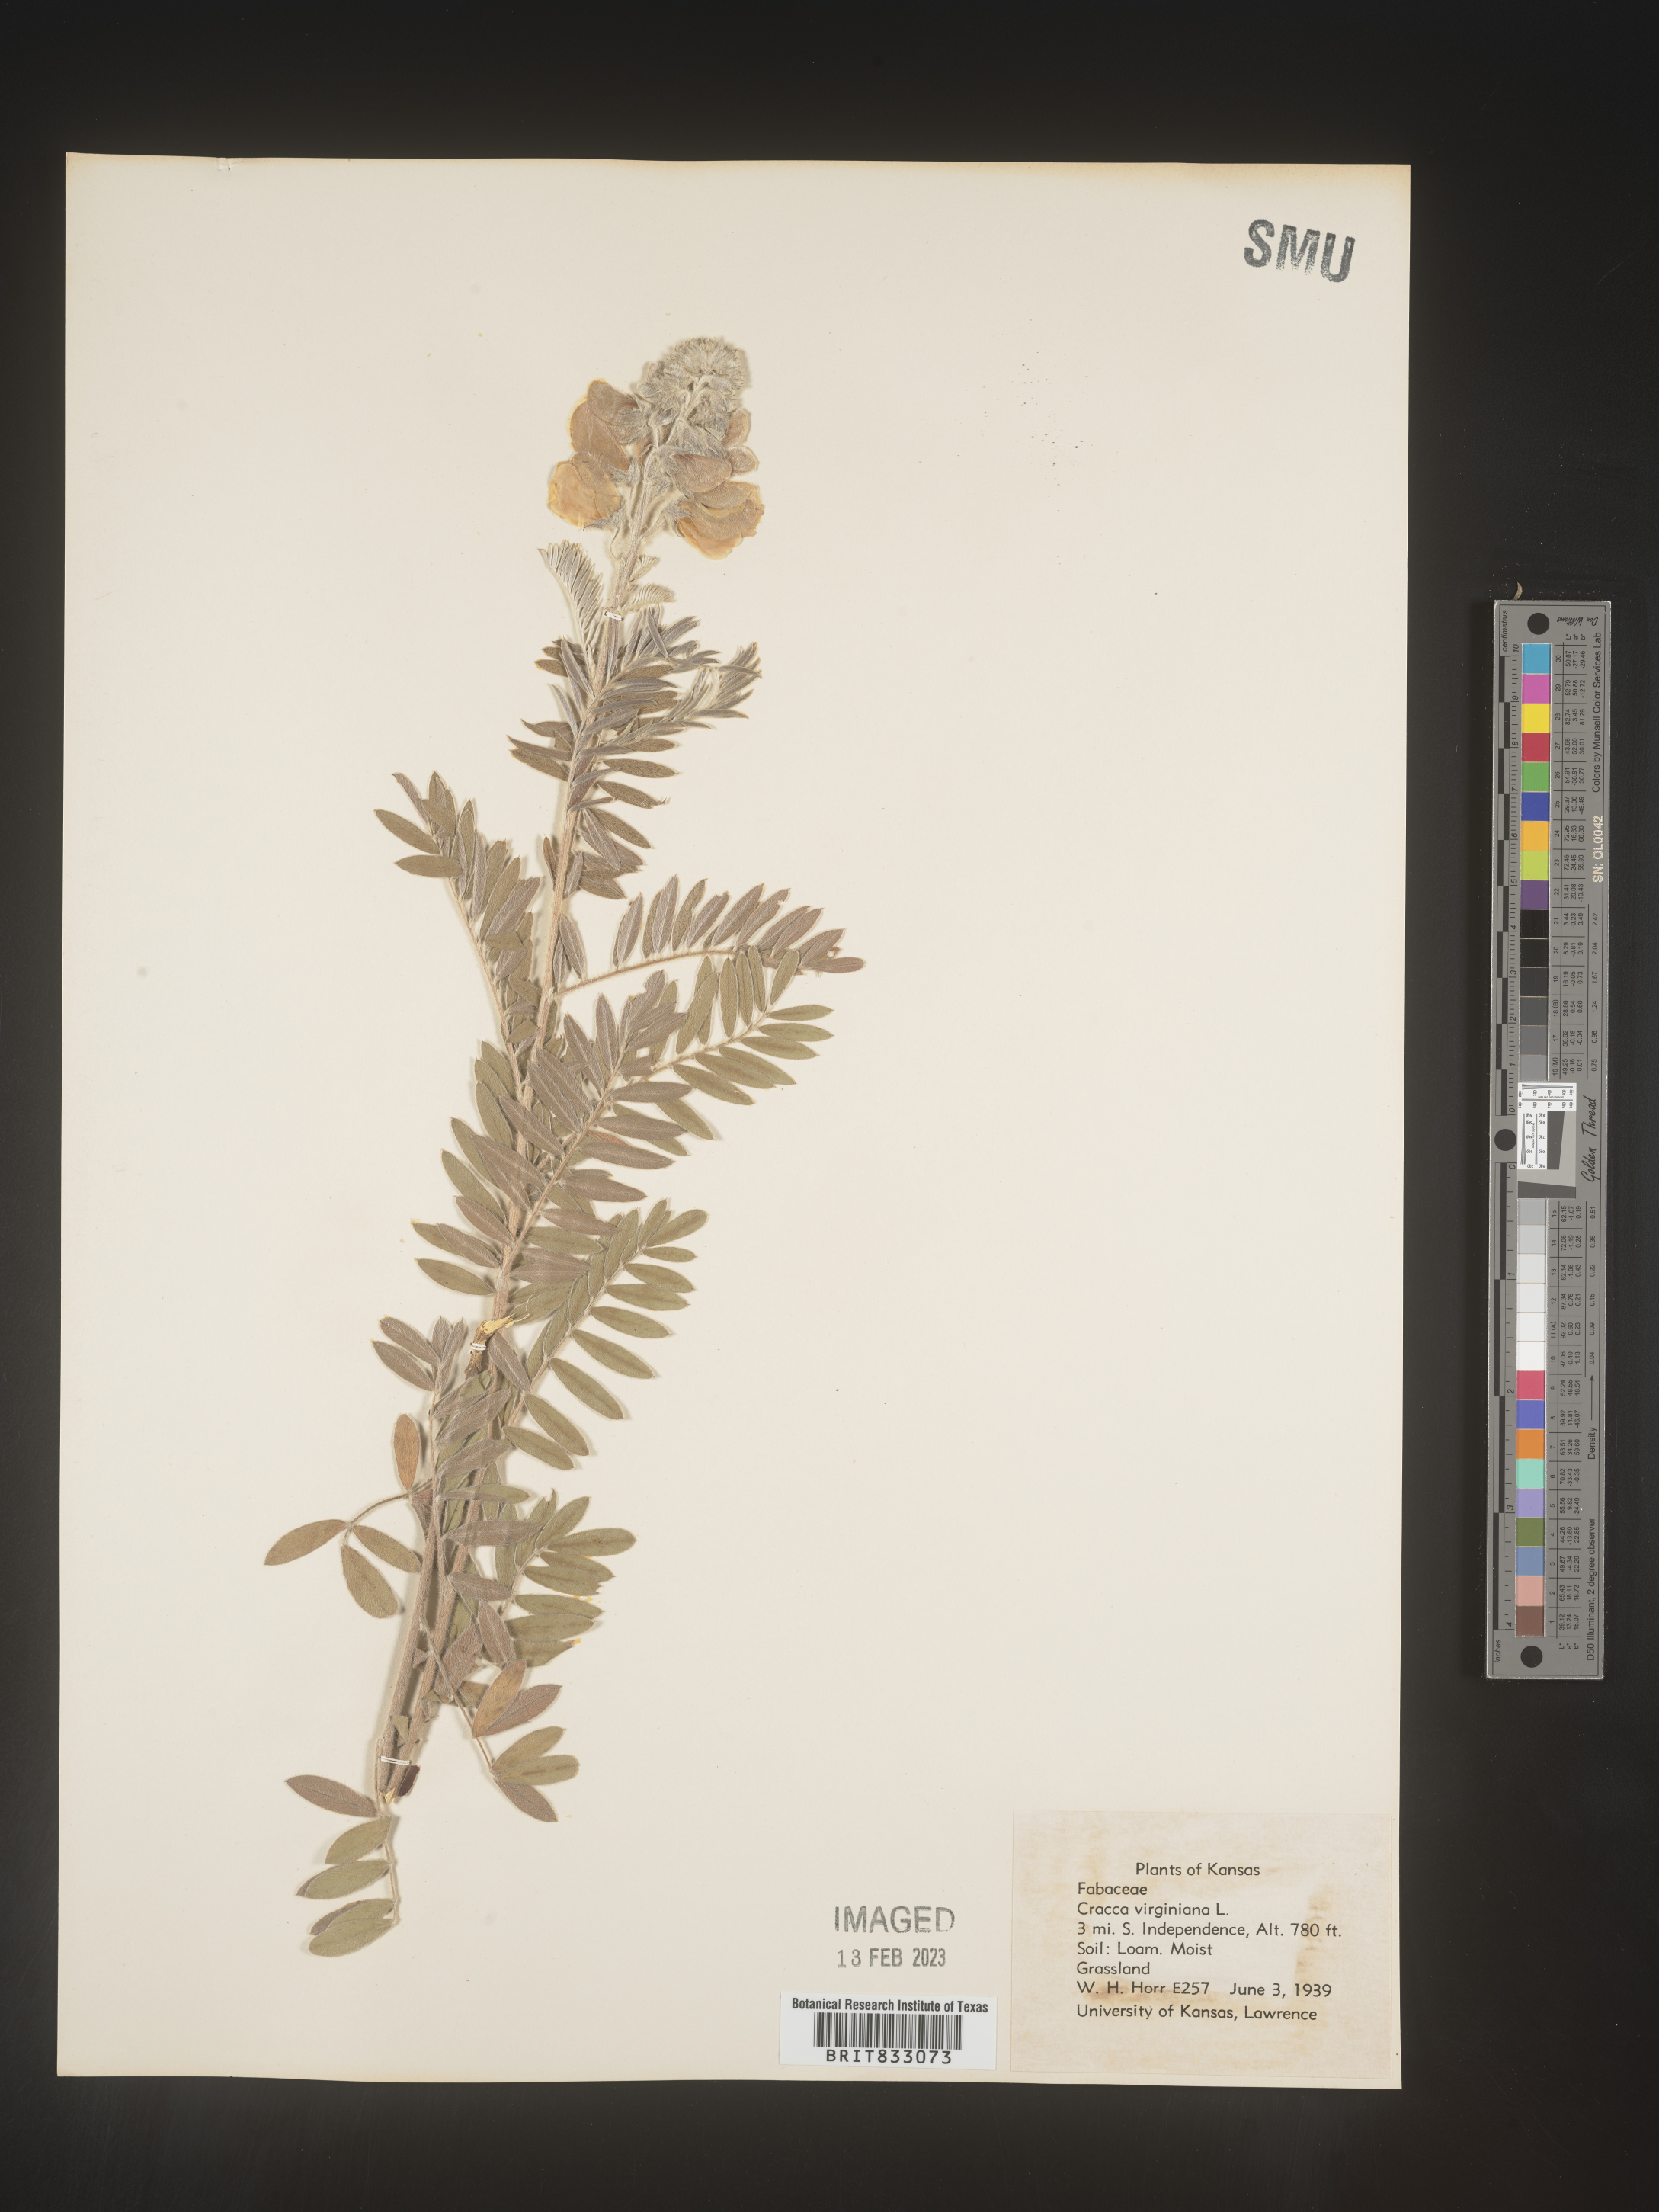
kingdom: Plantae
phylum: Tracheophyta
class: Magnoliopsida
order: Fabales
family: Fabaceae
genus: Tephrosia
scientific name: Tephrosia virginiana
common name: Rabbit-pea
